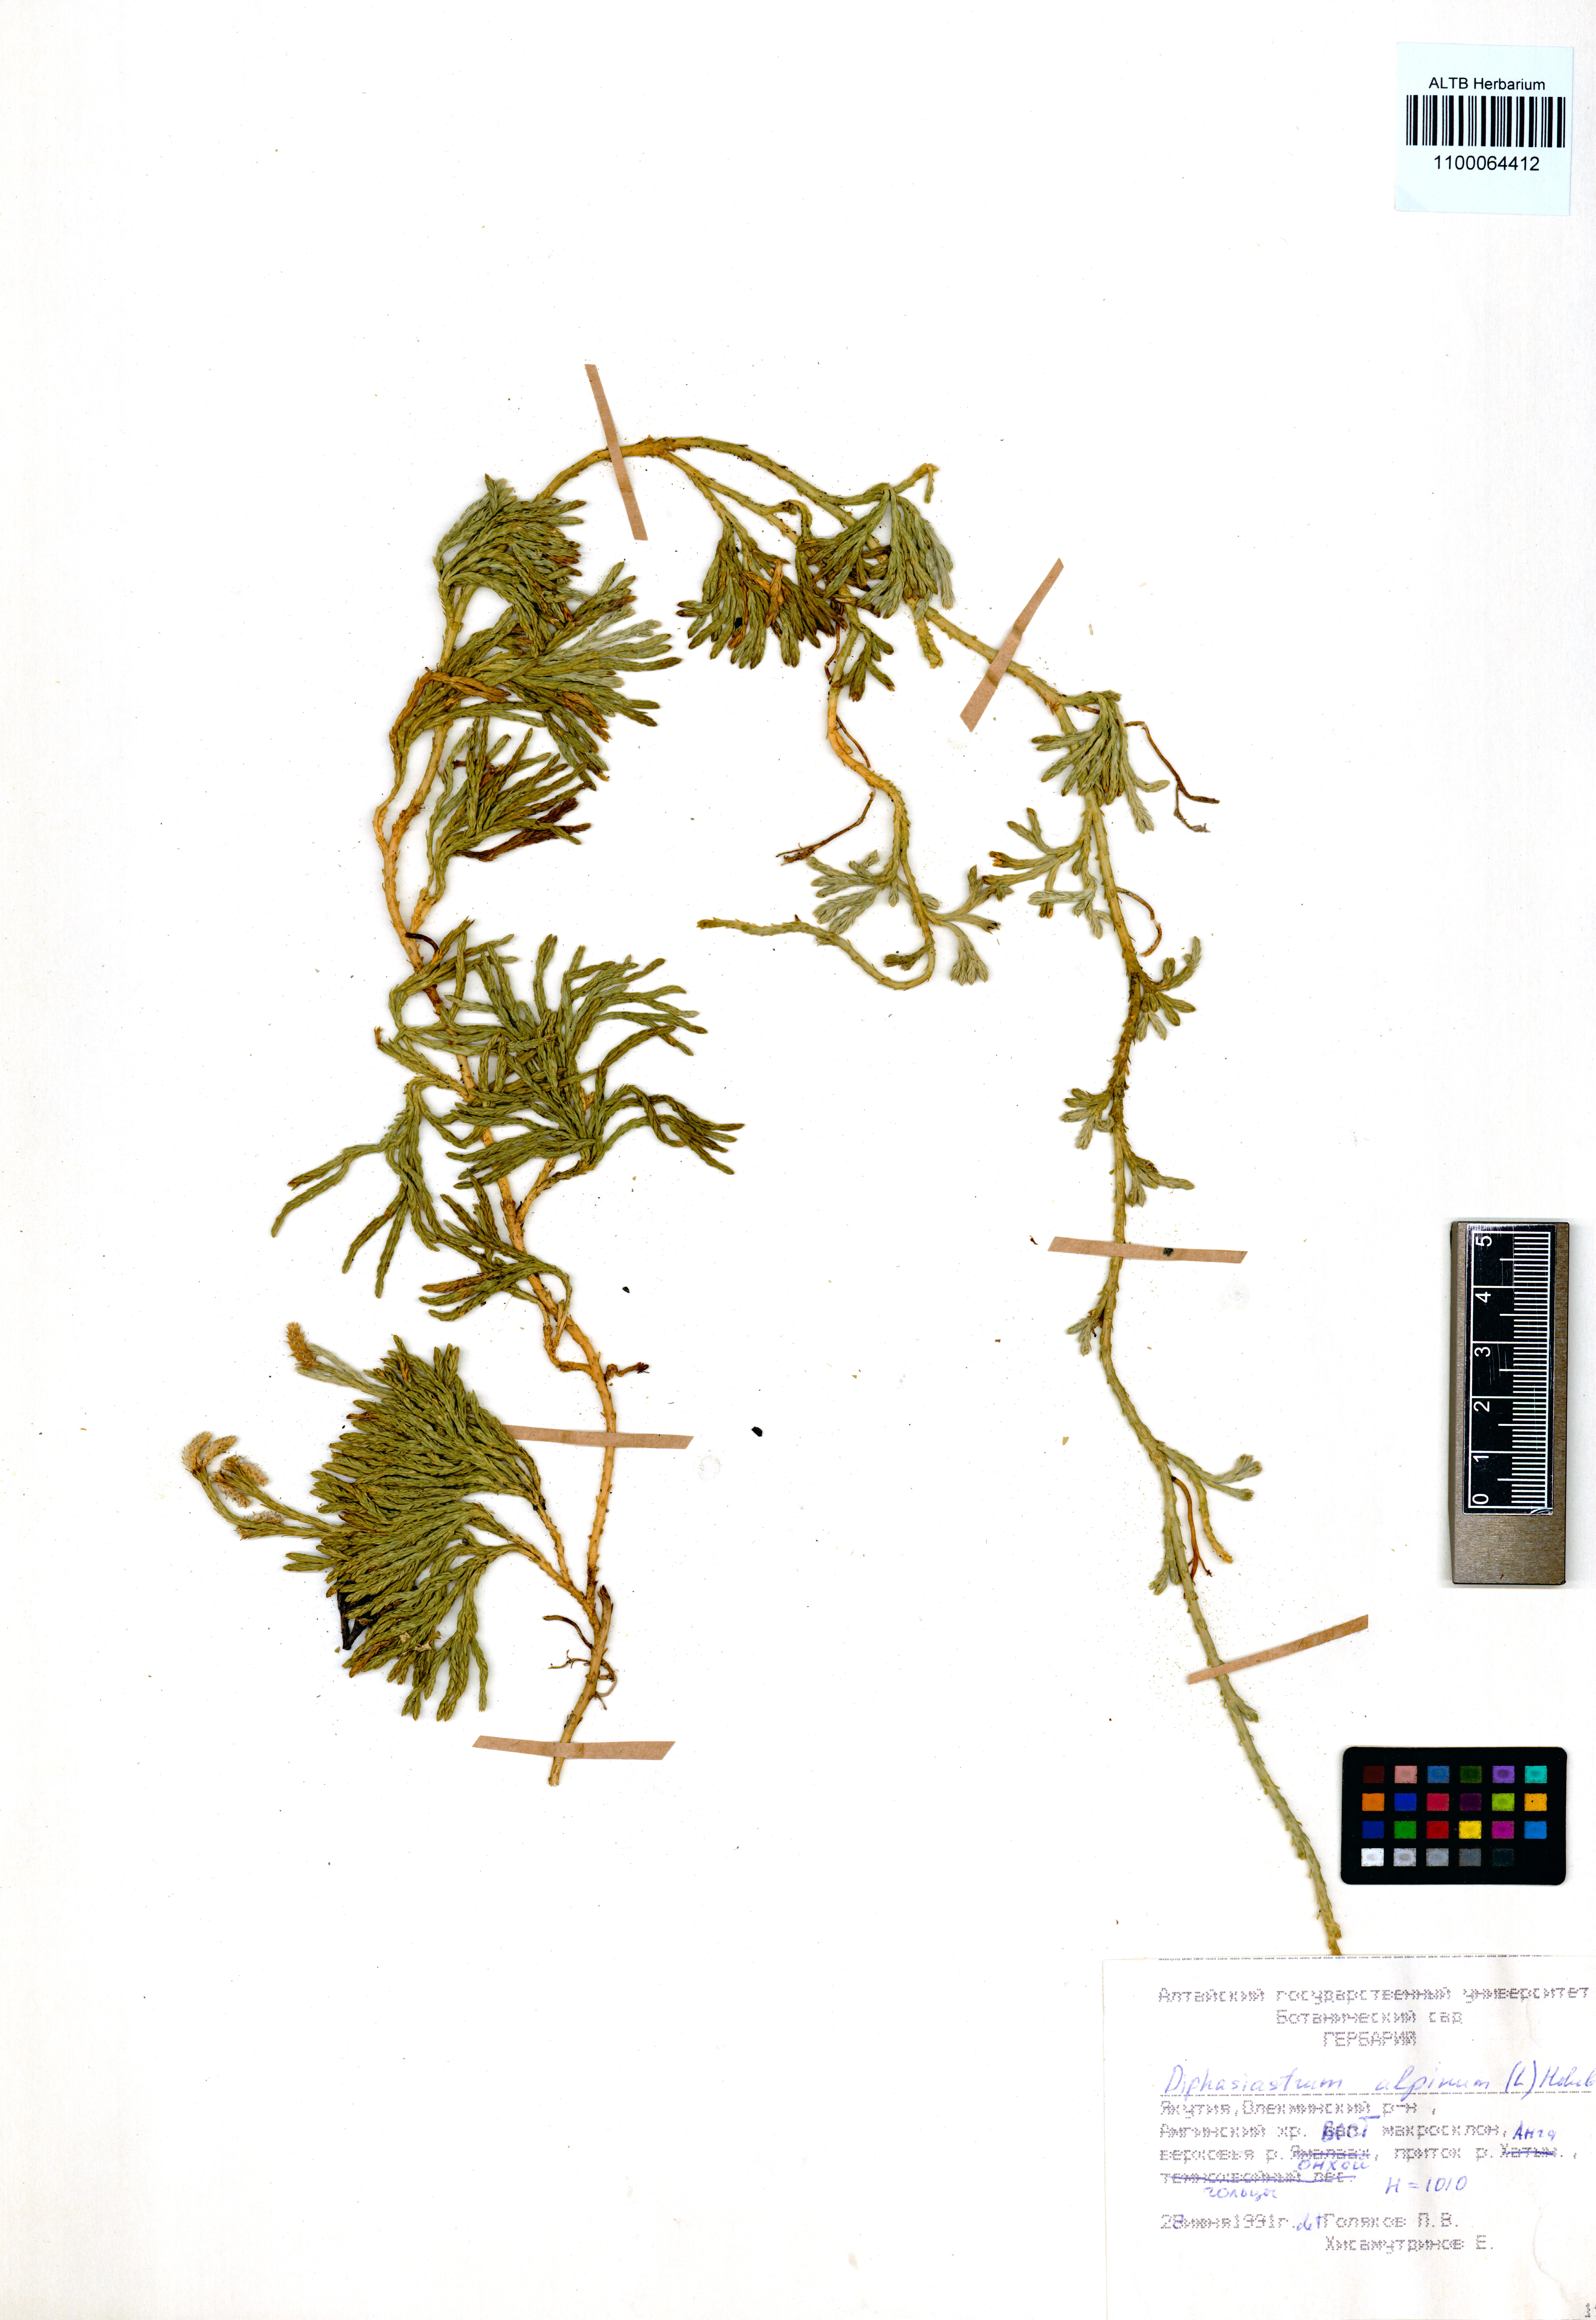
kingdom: Plantae
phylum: Tracheophyta
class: Lycopodiopsida
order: Lycopodiales
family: Lycopodiaceae
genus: Diphasiastrum
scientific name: Diphasiastrum alpinum
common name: Alpine clubmoss
